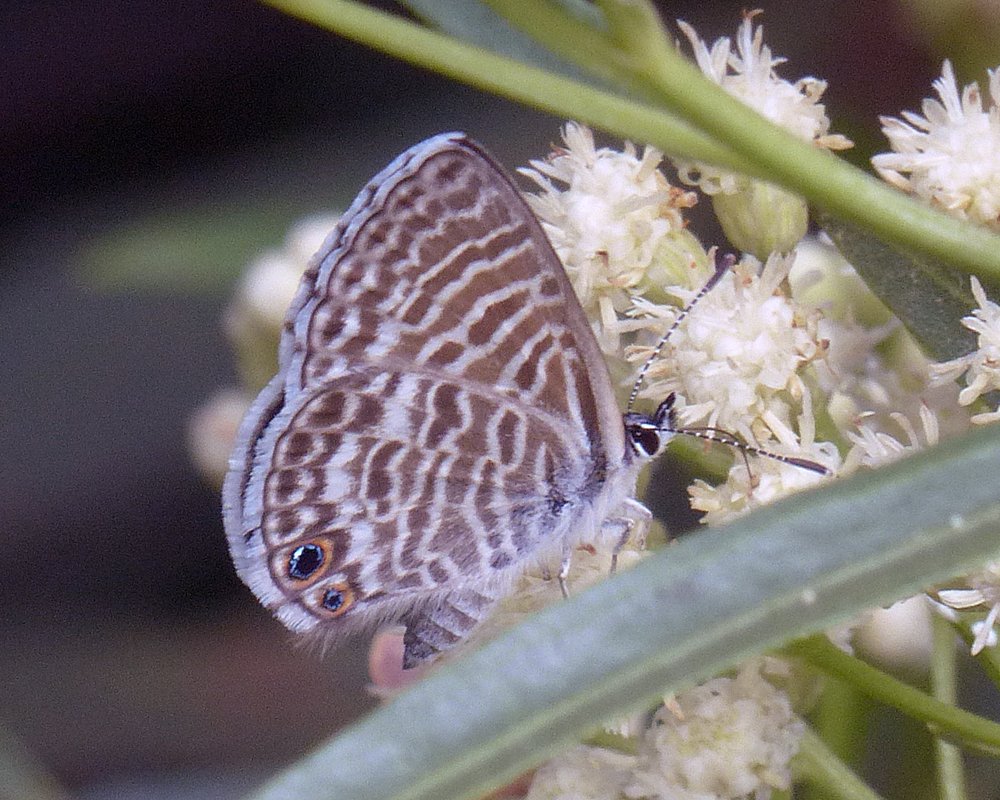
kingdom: Animalia
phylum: Arthropoda
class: Insecta
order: Lepidoptera
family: Lycaenidae
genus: Leptotes
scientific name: Leptotes marina
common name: Marine Blue
